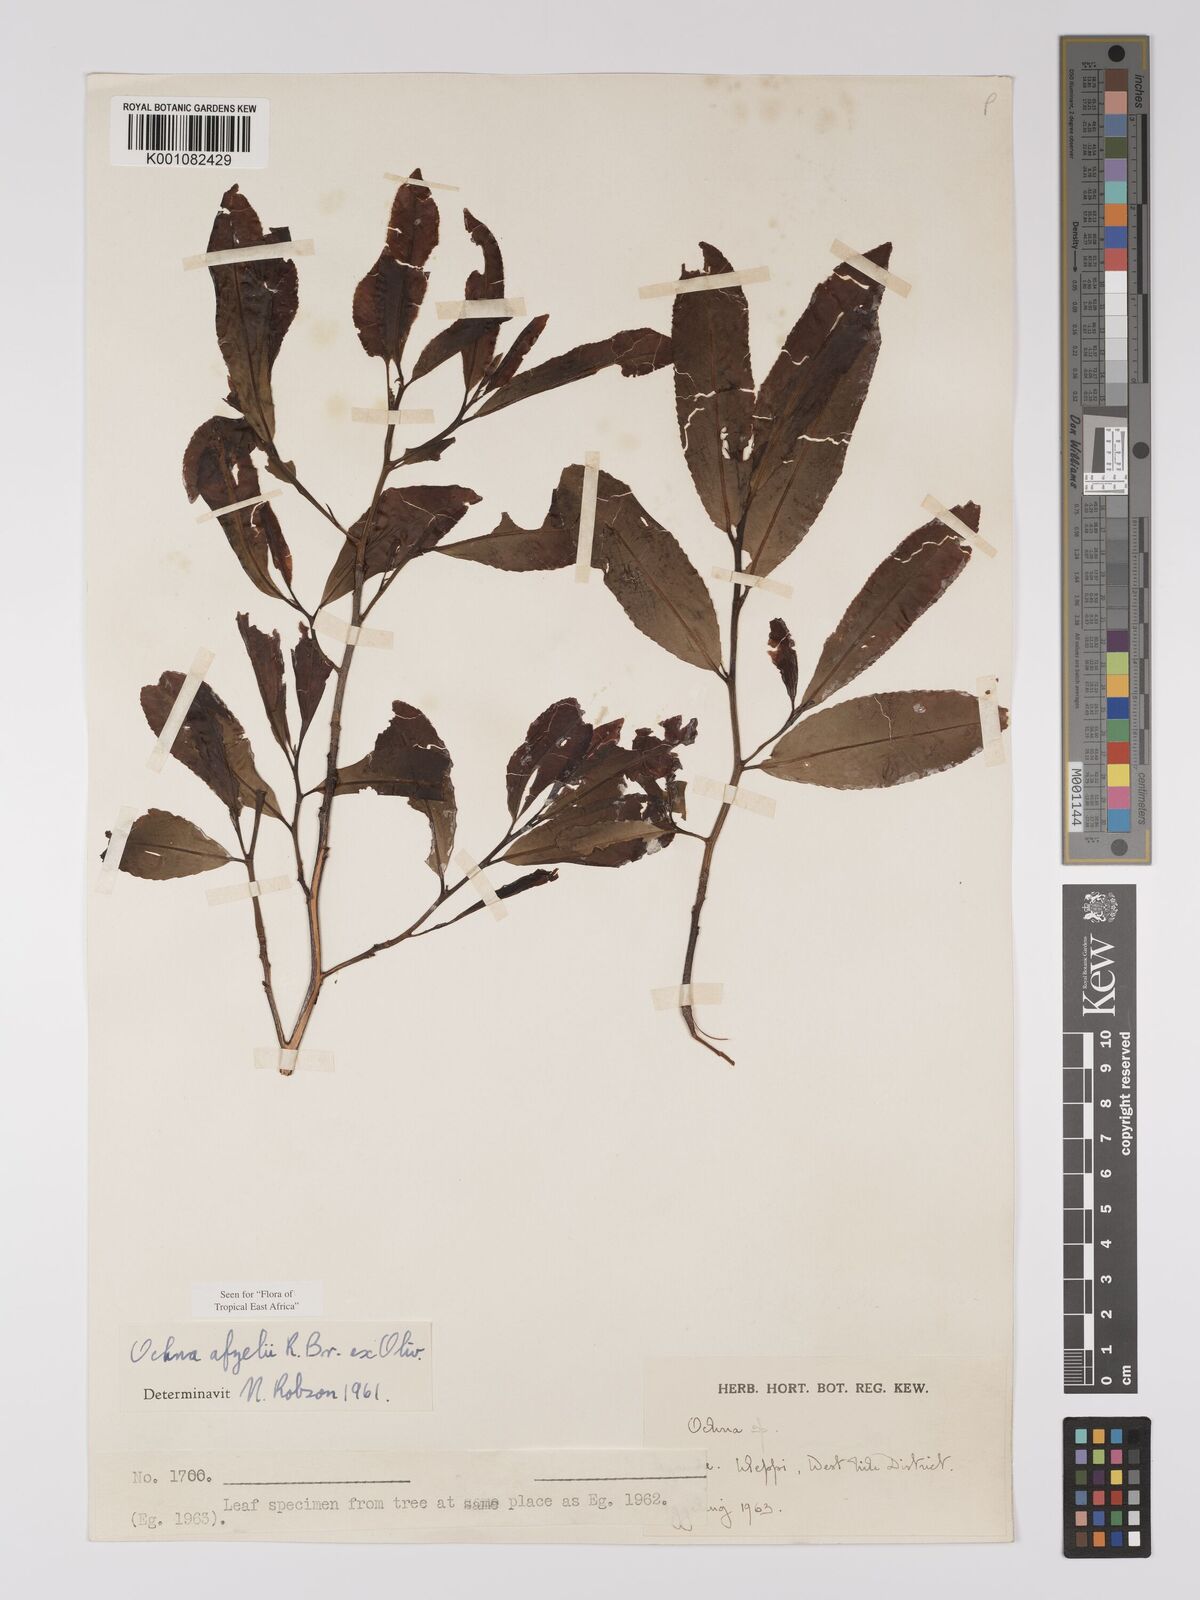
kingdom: Plantae
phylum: Tracheophyta
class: Magnoliopsida
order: Malpighiales
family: Ochnaceae
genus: Ochna
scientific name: Ochna afzelii
